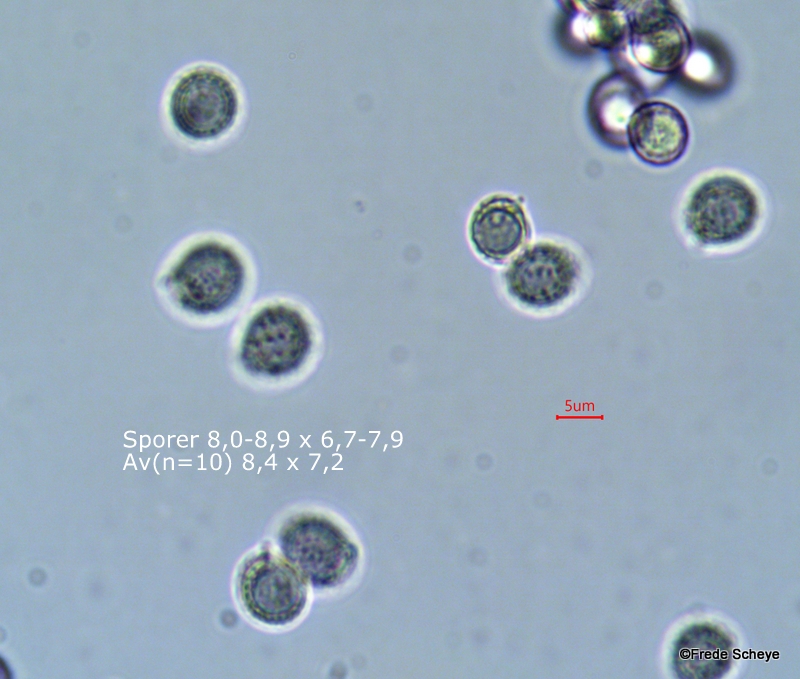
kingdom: Fungi
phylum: Basidiomycota
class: Agaricomycetes
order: Russulales
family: Russulaceae
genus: Russula
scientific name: Russula cyanoxantha
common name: broget skørhat
